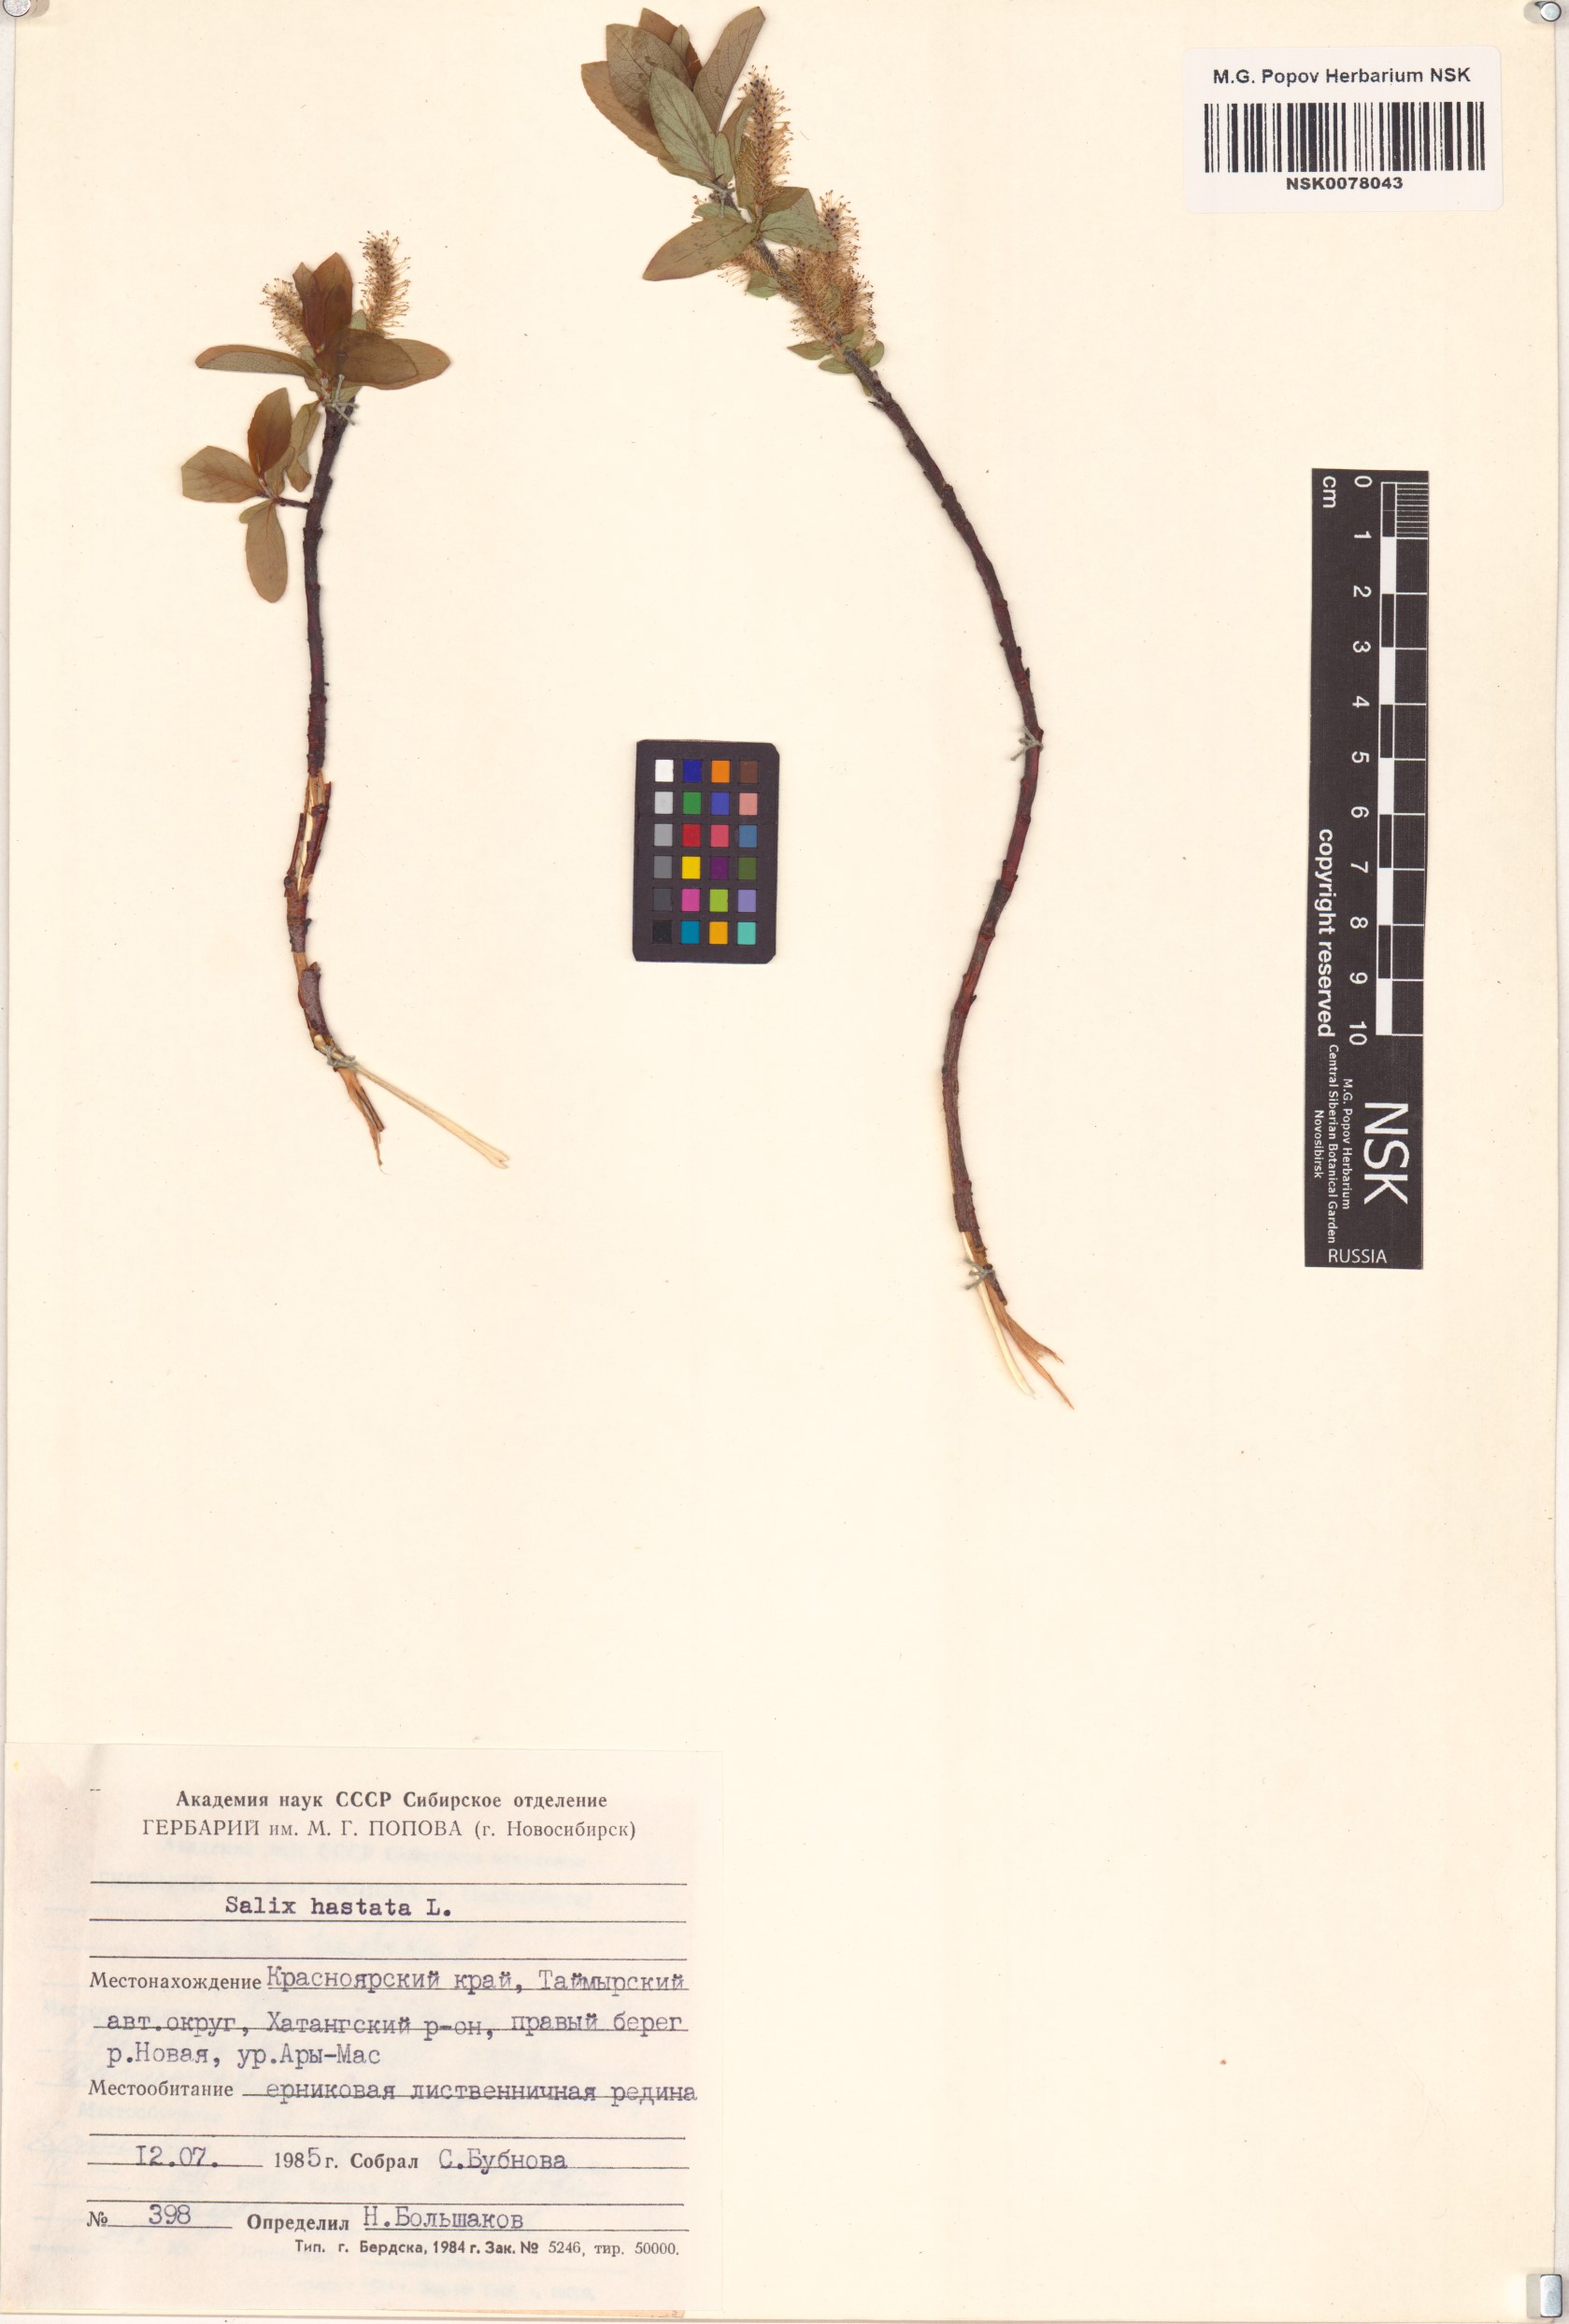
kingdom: Plantae
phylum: Tracheophyta
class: Magnoliopsida
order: Malpighiales
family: Salicaceae
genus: Salix
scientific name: Salix hastata
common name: Halberd willow
